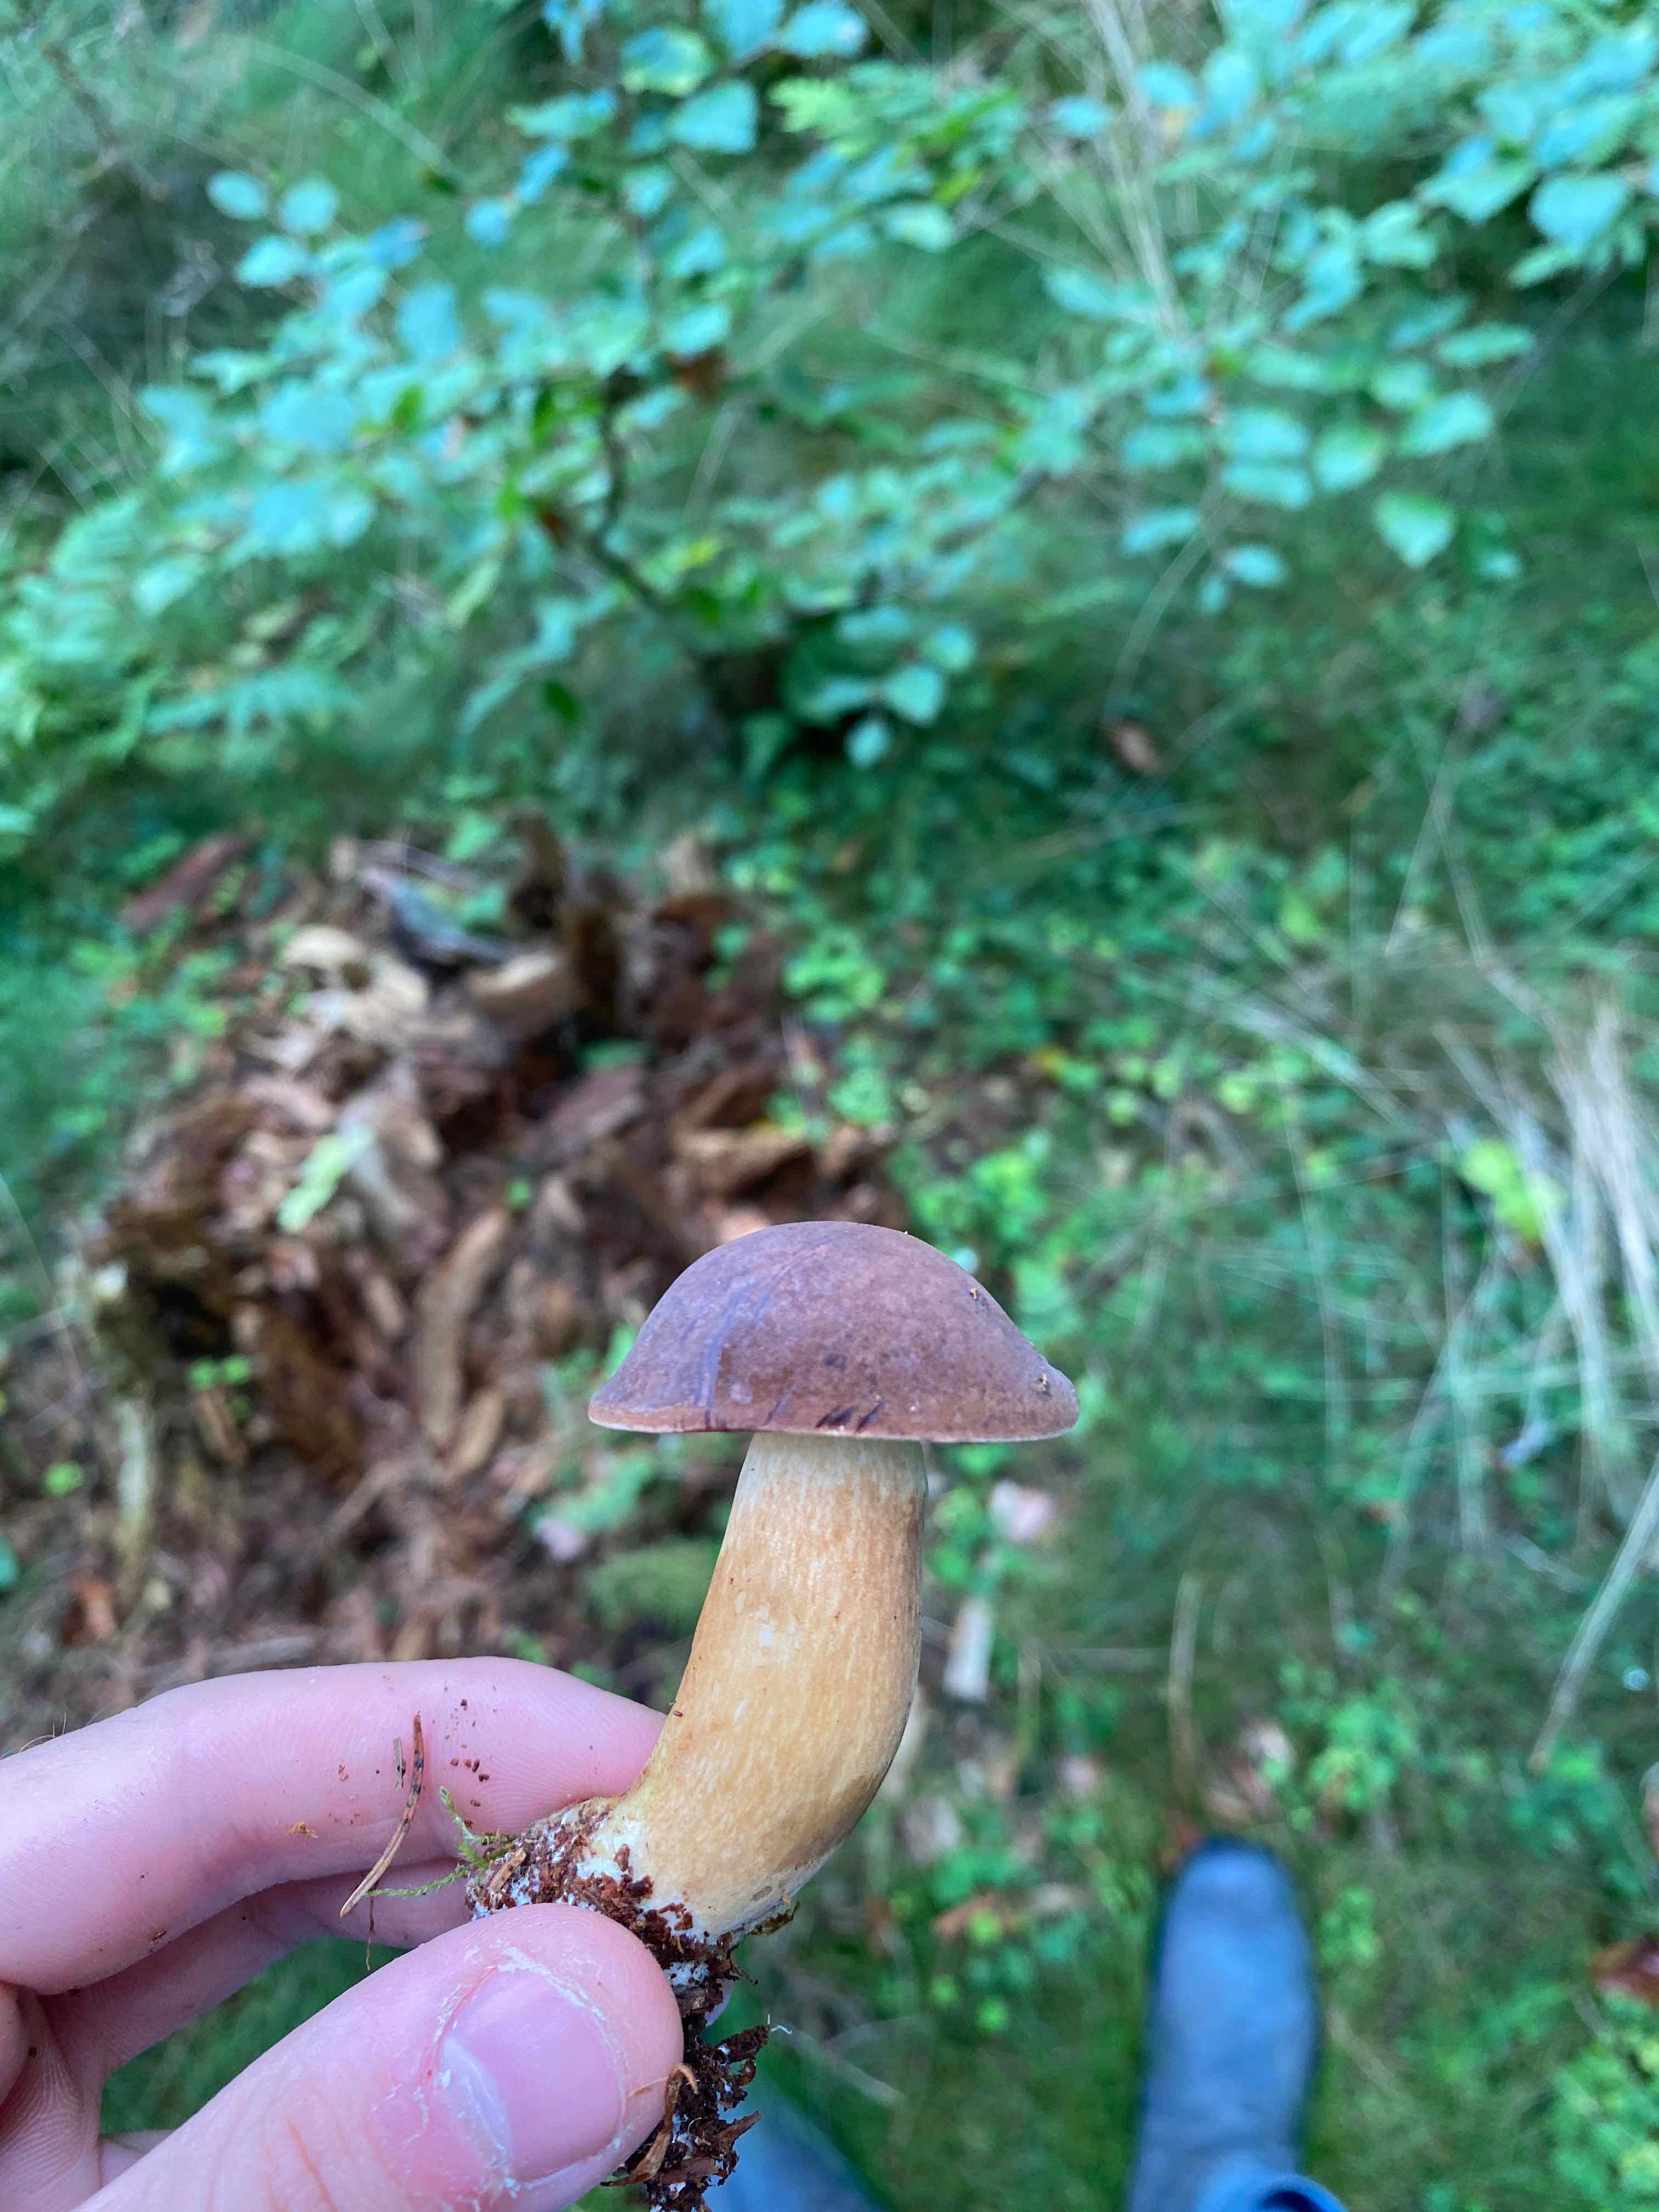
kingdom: Fungi
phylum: Basidiomycota
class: Agaricomycetes
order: Boletales
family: Boletaceae
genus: Imleria
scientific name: Imleria badia
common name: brunstokket rørhat
